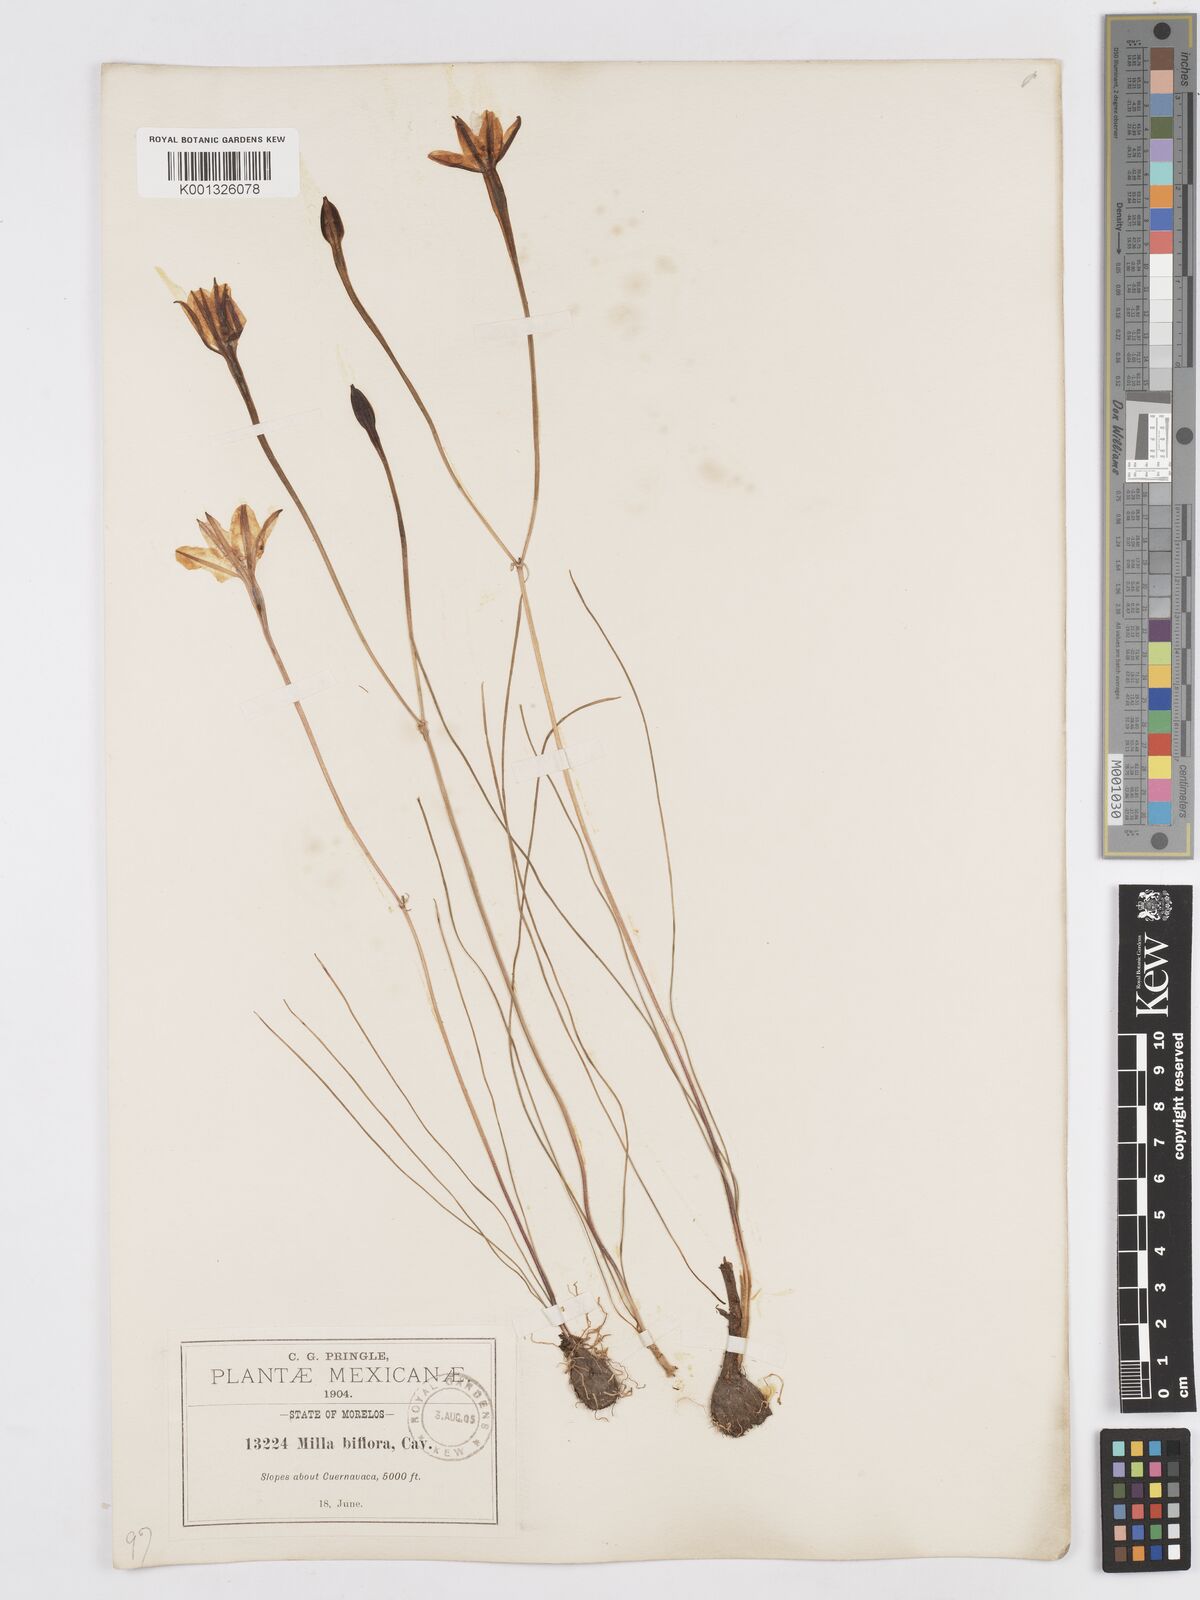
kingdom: Plantae
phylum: Tracheophyta
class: Liliopsida
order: Asparagales
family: Asparagaceae
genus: Milla
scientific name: Milla biflora
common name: Mexican-star
